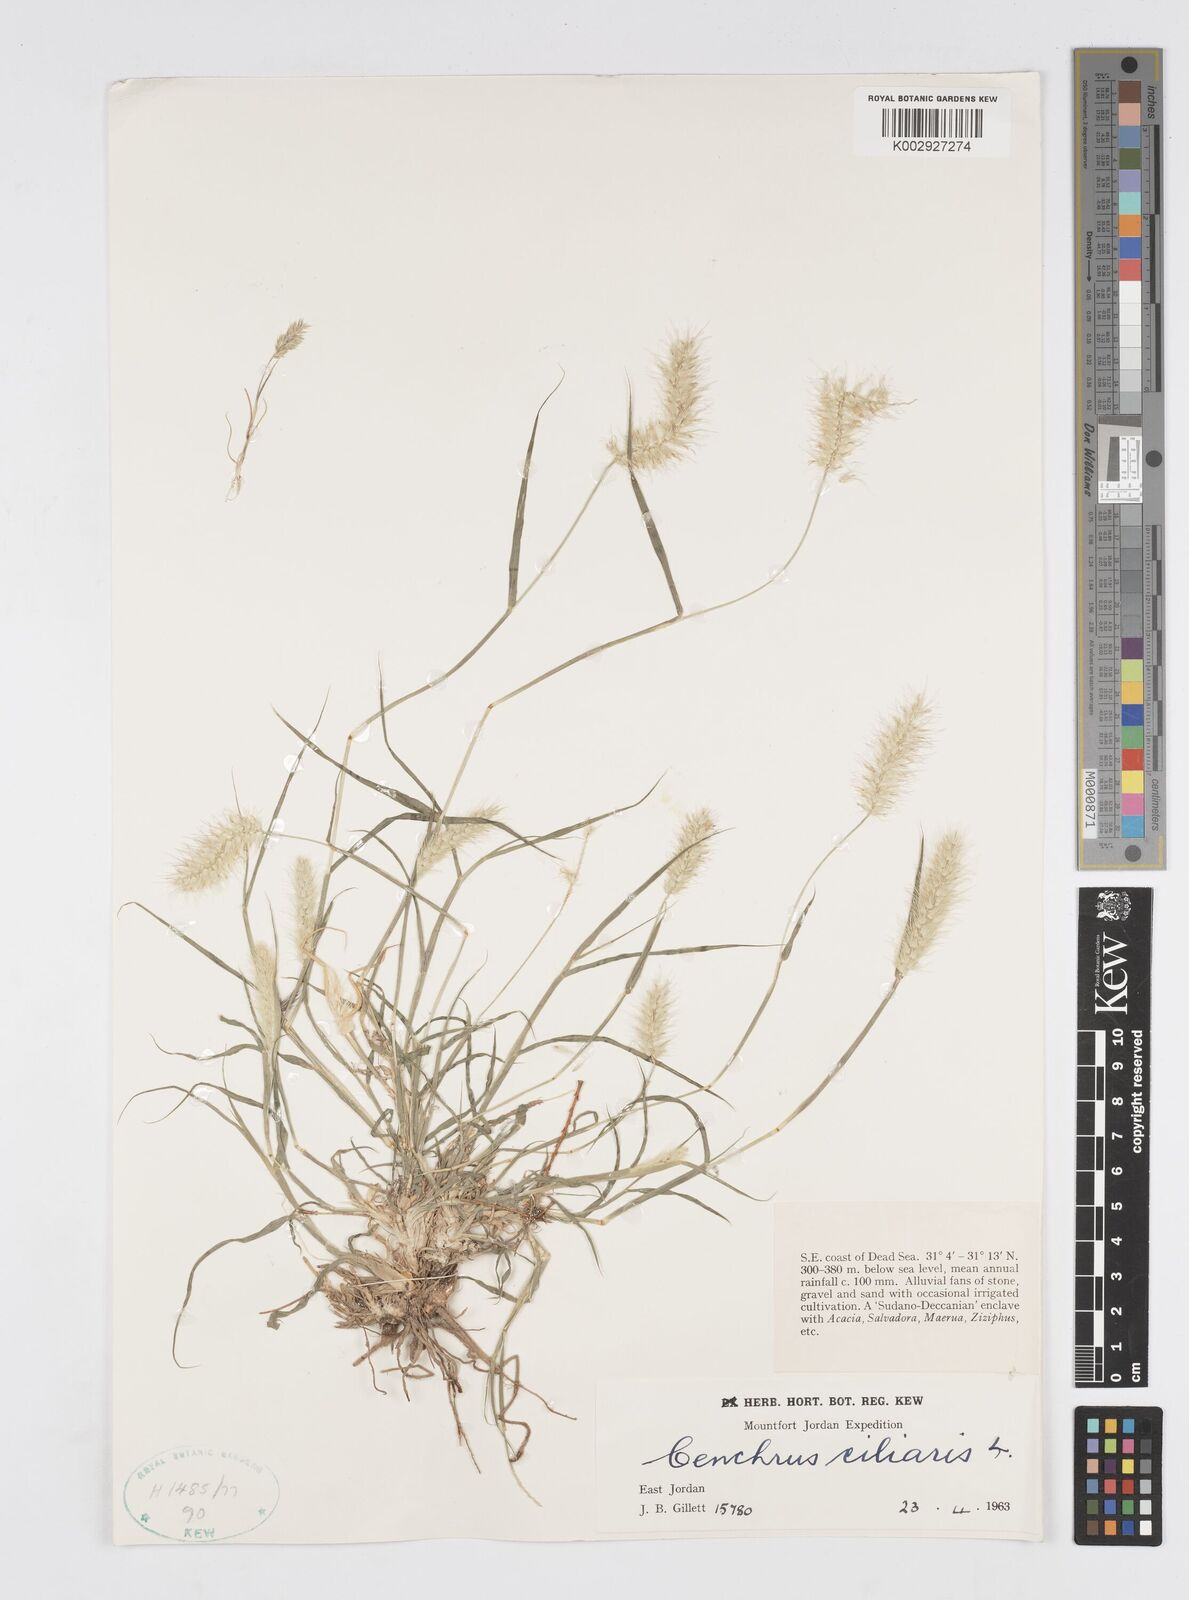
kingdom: Plantae
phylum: Tracheophyta
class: Liliopsida
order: Poales
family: Poaceae
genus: Cenchrus
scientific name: Cenchrus ciliaris
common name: Buffelgrass
